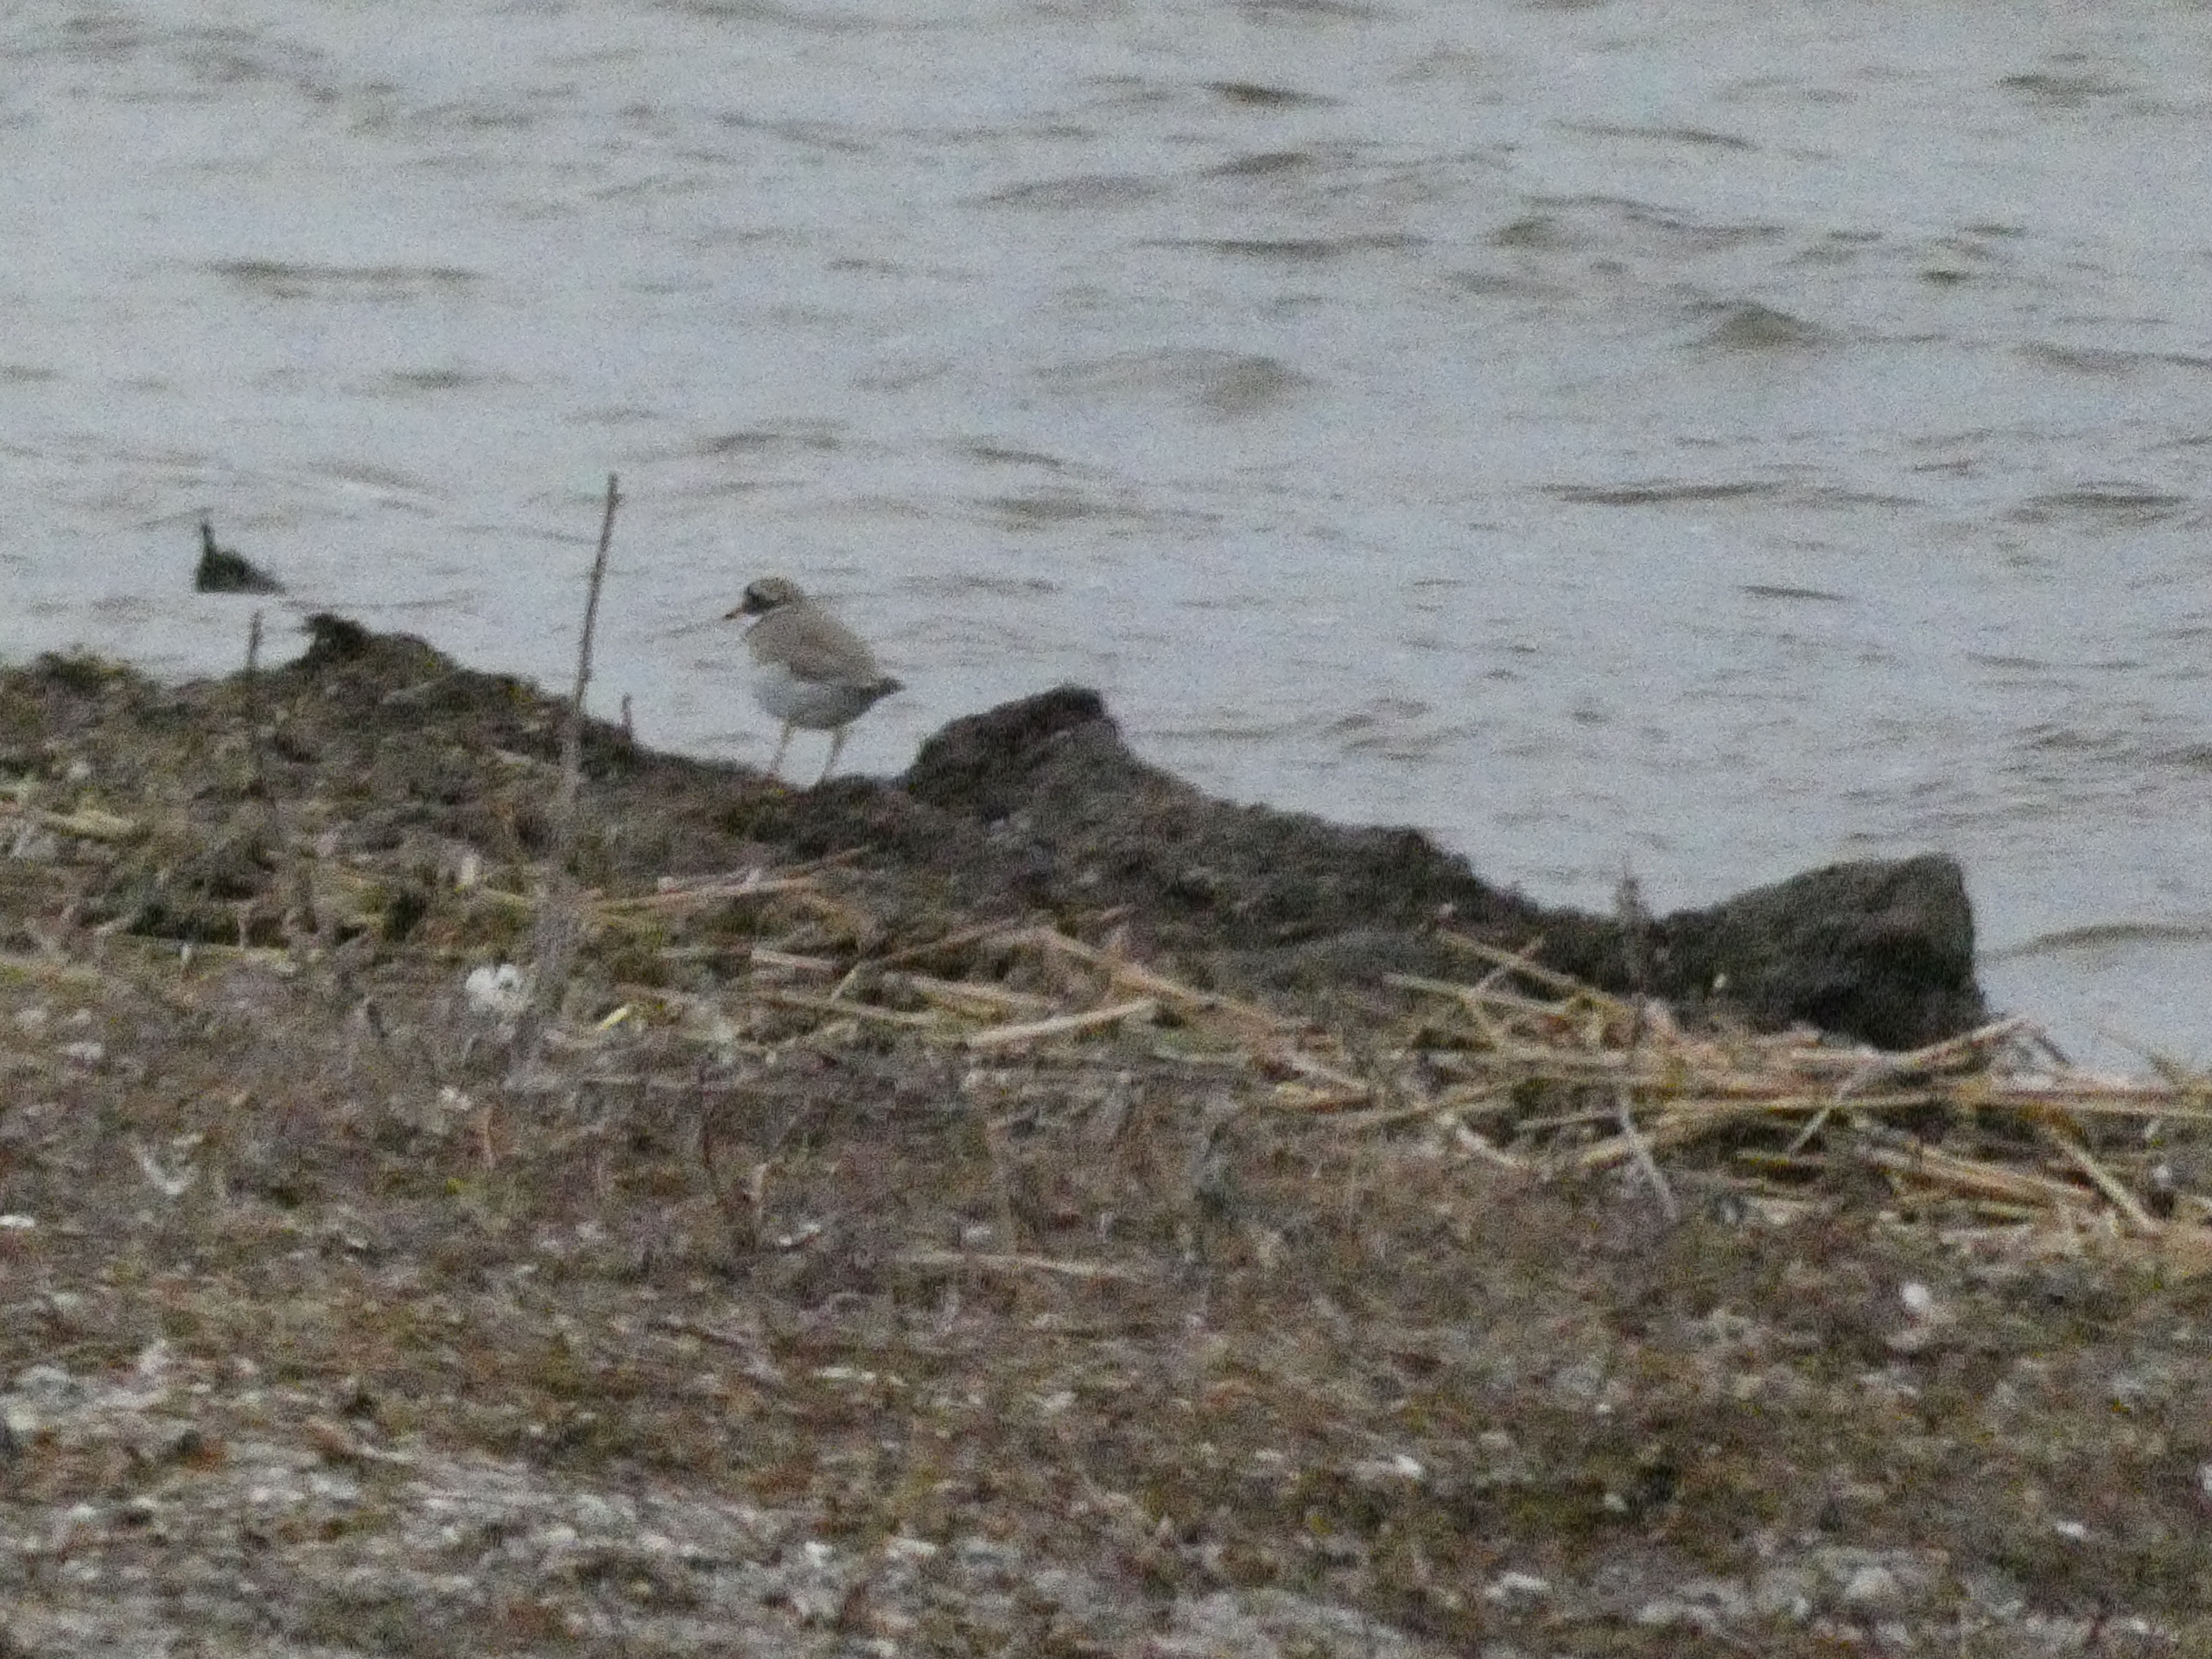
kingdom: Animalia
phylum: Chordata
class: Aves
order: Charadriiformes
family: Charadriidae
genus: Charadrius
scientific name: Charadrius hiaticula
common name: Stor præstekrave
